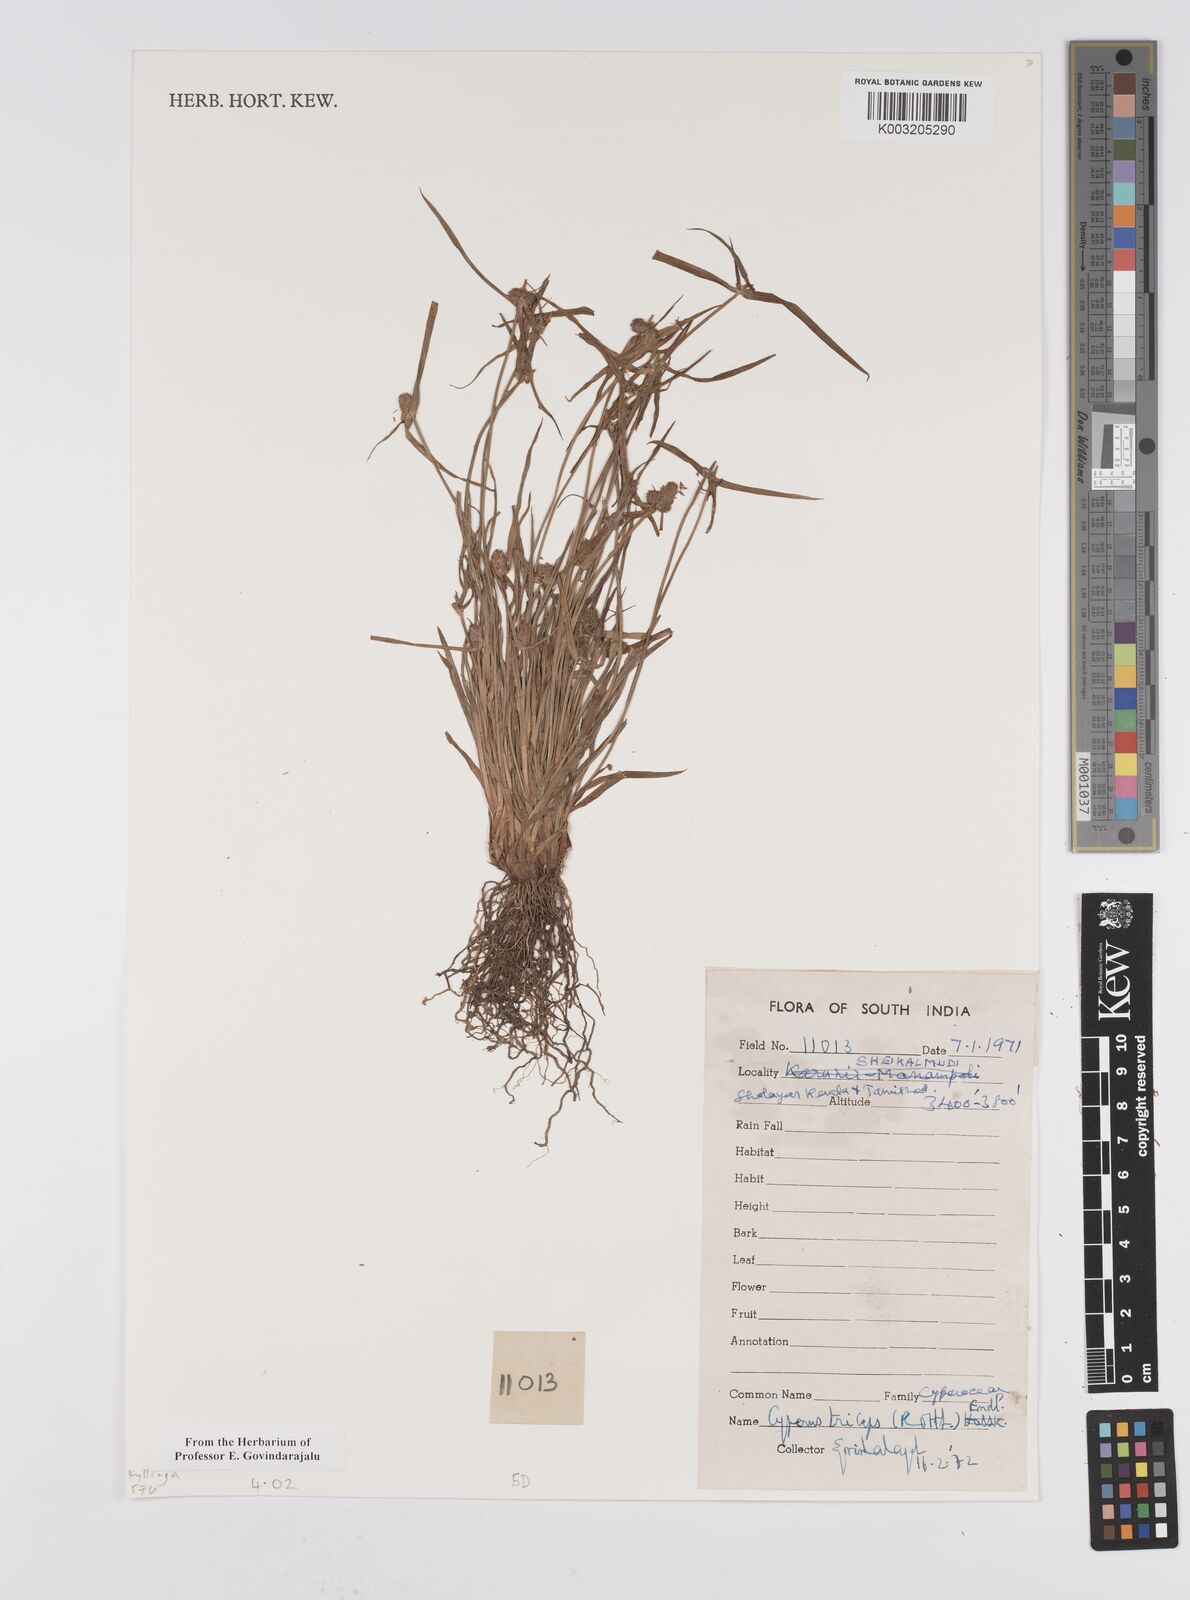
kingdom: Plantae
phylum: Tracheophyta
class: Liliopsida
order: Poales
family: Cyperaceae
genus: Cyperus
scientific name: Cyperus
